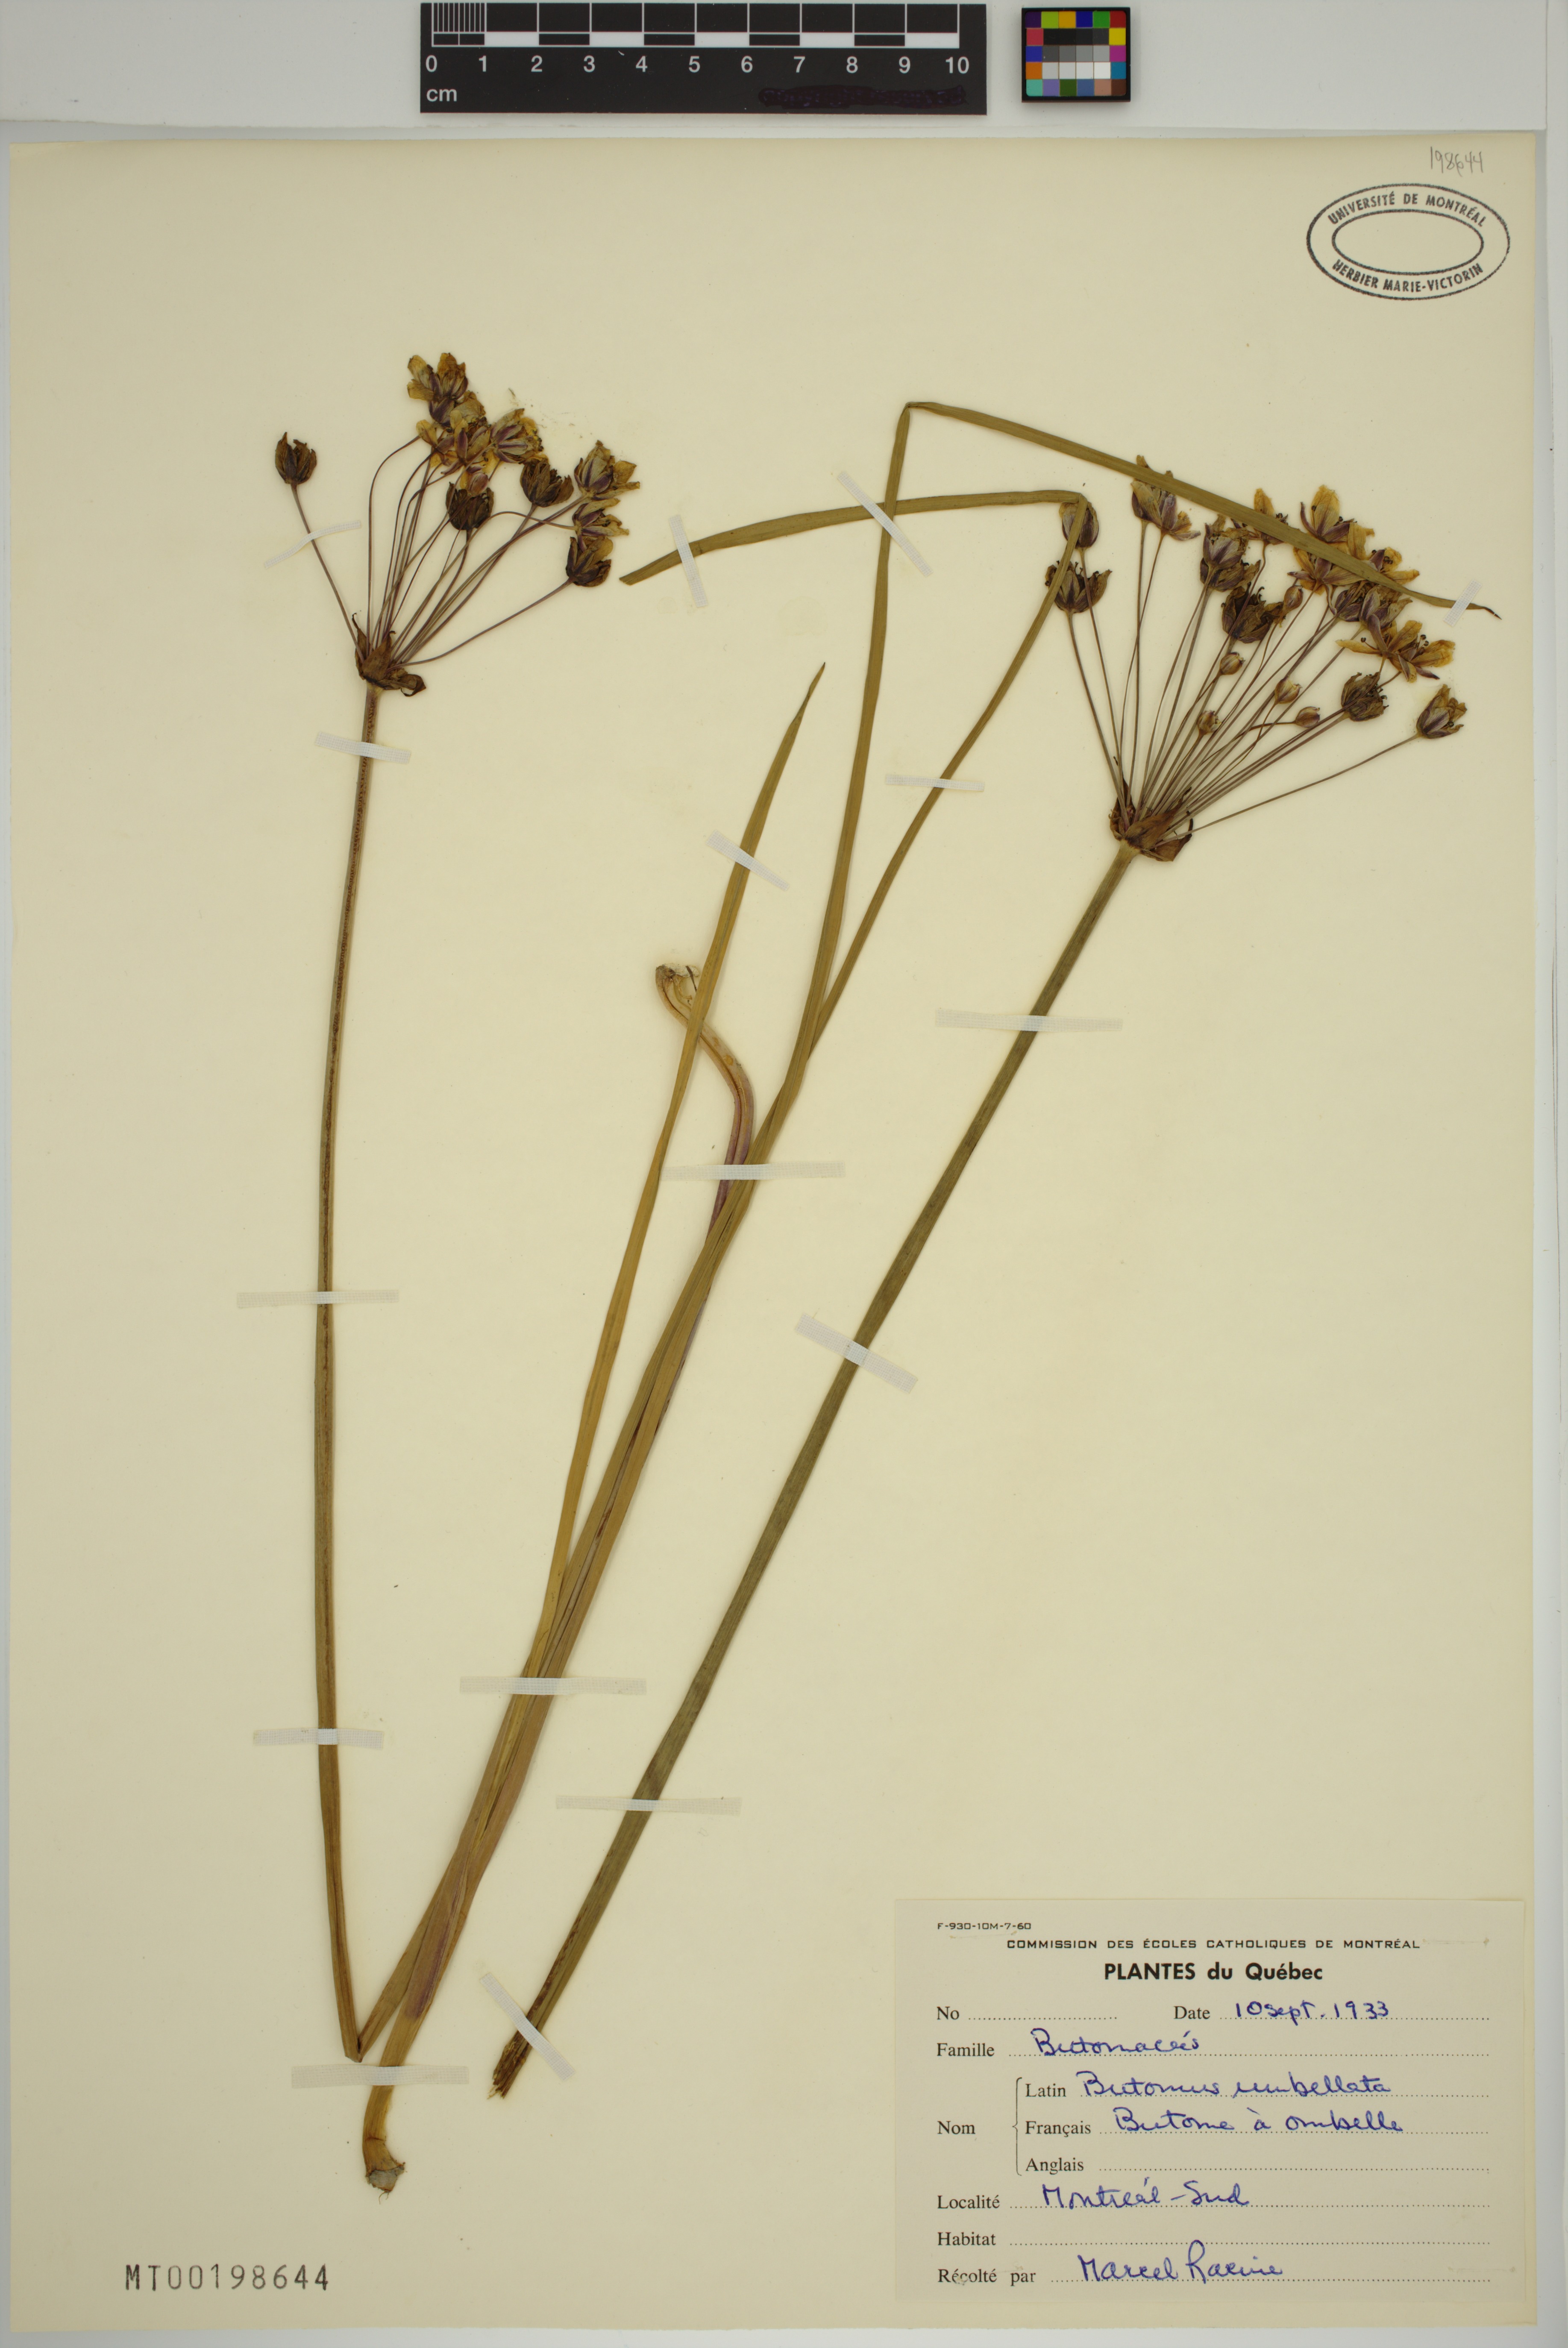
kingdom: Plantae
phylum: Tracheophyta
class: Liliopsida
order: Alismatales
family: Butomaceae
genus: Butomus
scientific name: Butomus umbellatus
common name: Flowering-rush
